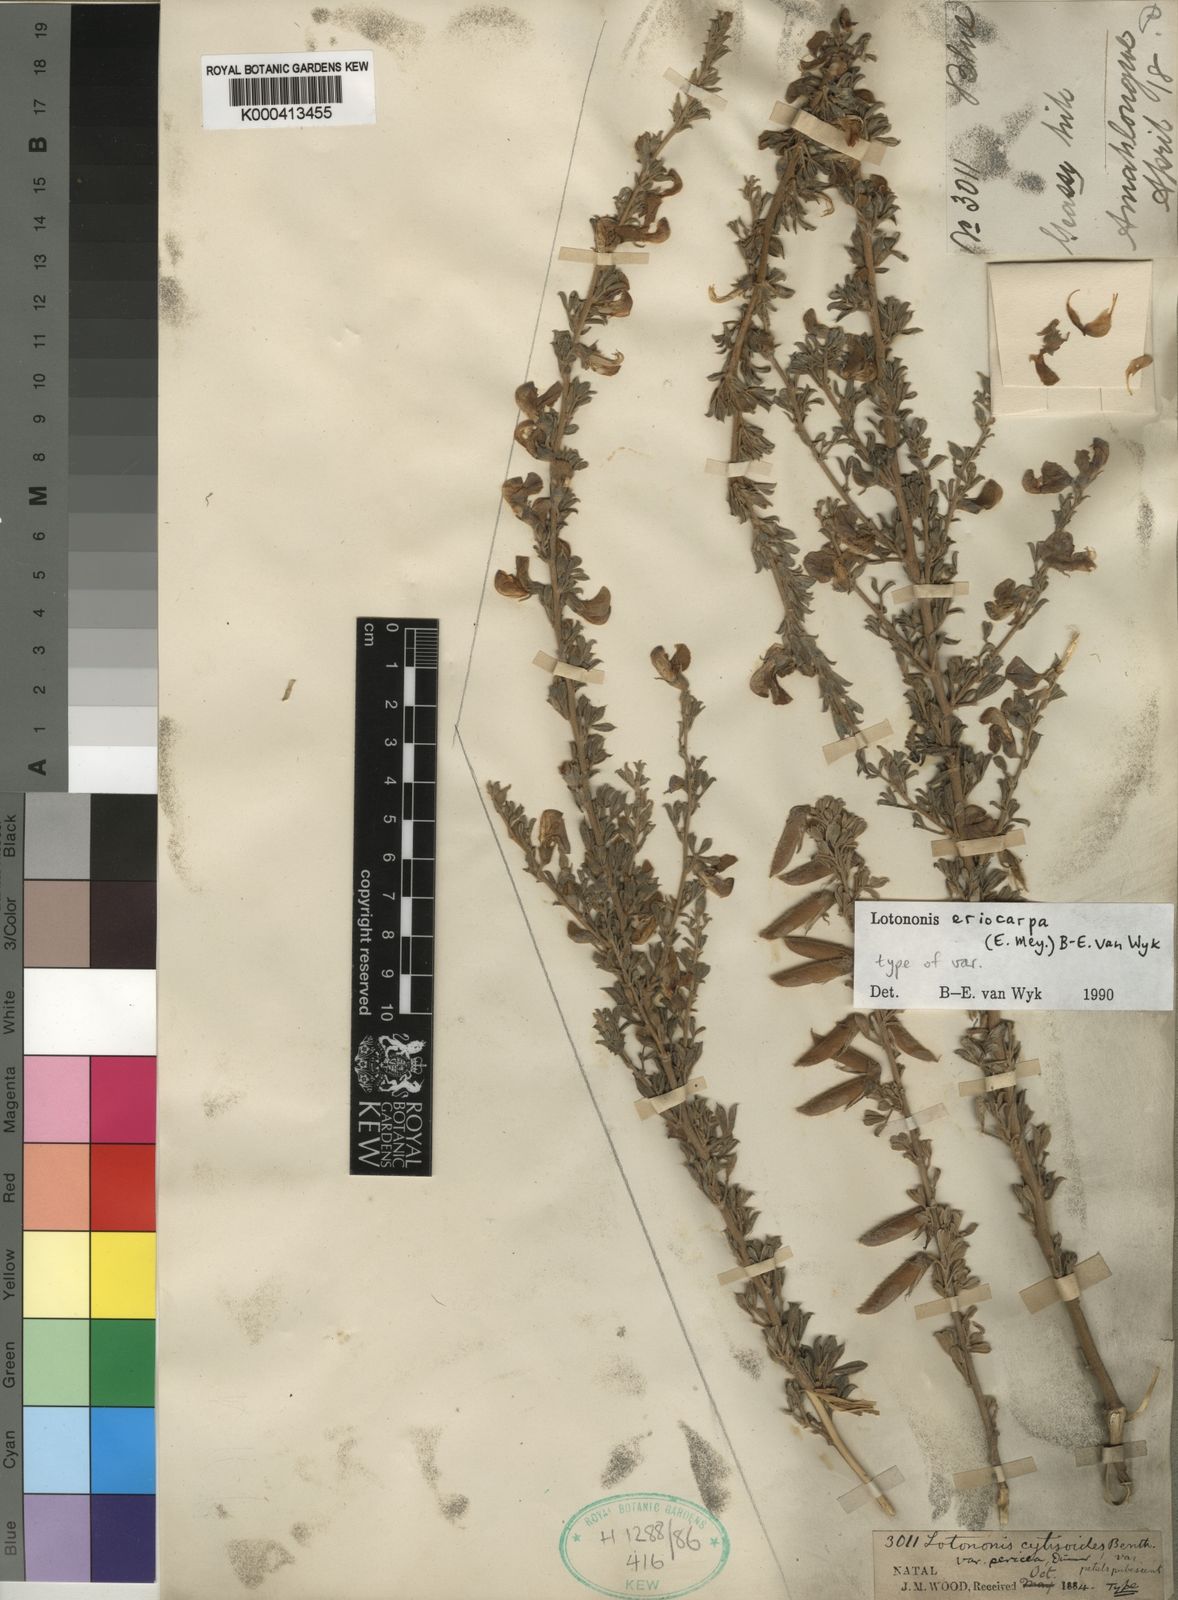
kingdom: Plantae
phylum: Tracheophyta
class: Magnoliopsida
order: Fabales
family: Fabaceae
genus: Lotononis
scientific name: Lotononis eriocarpa
